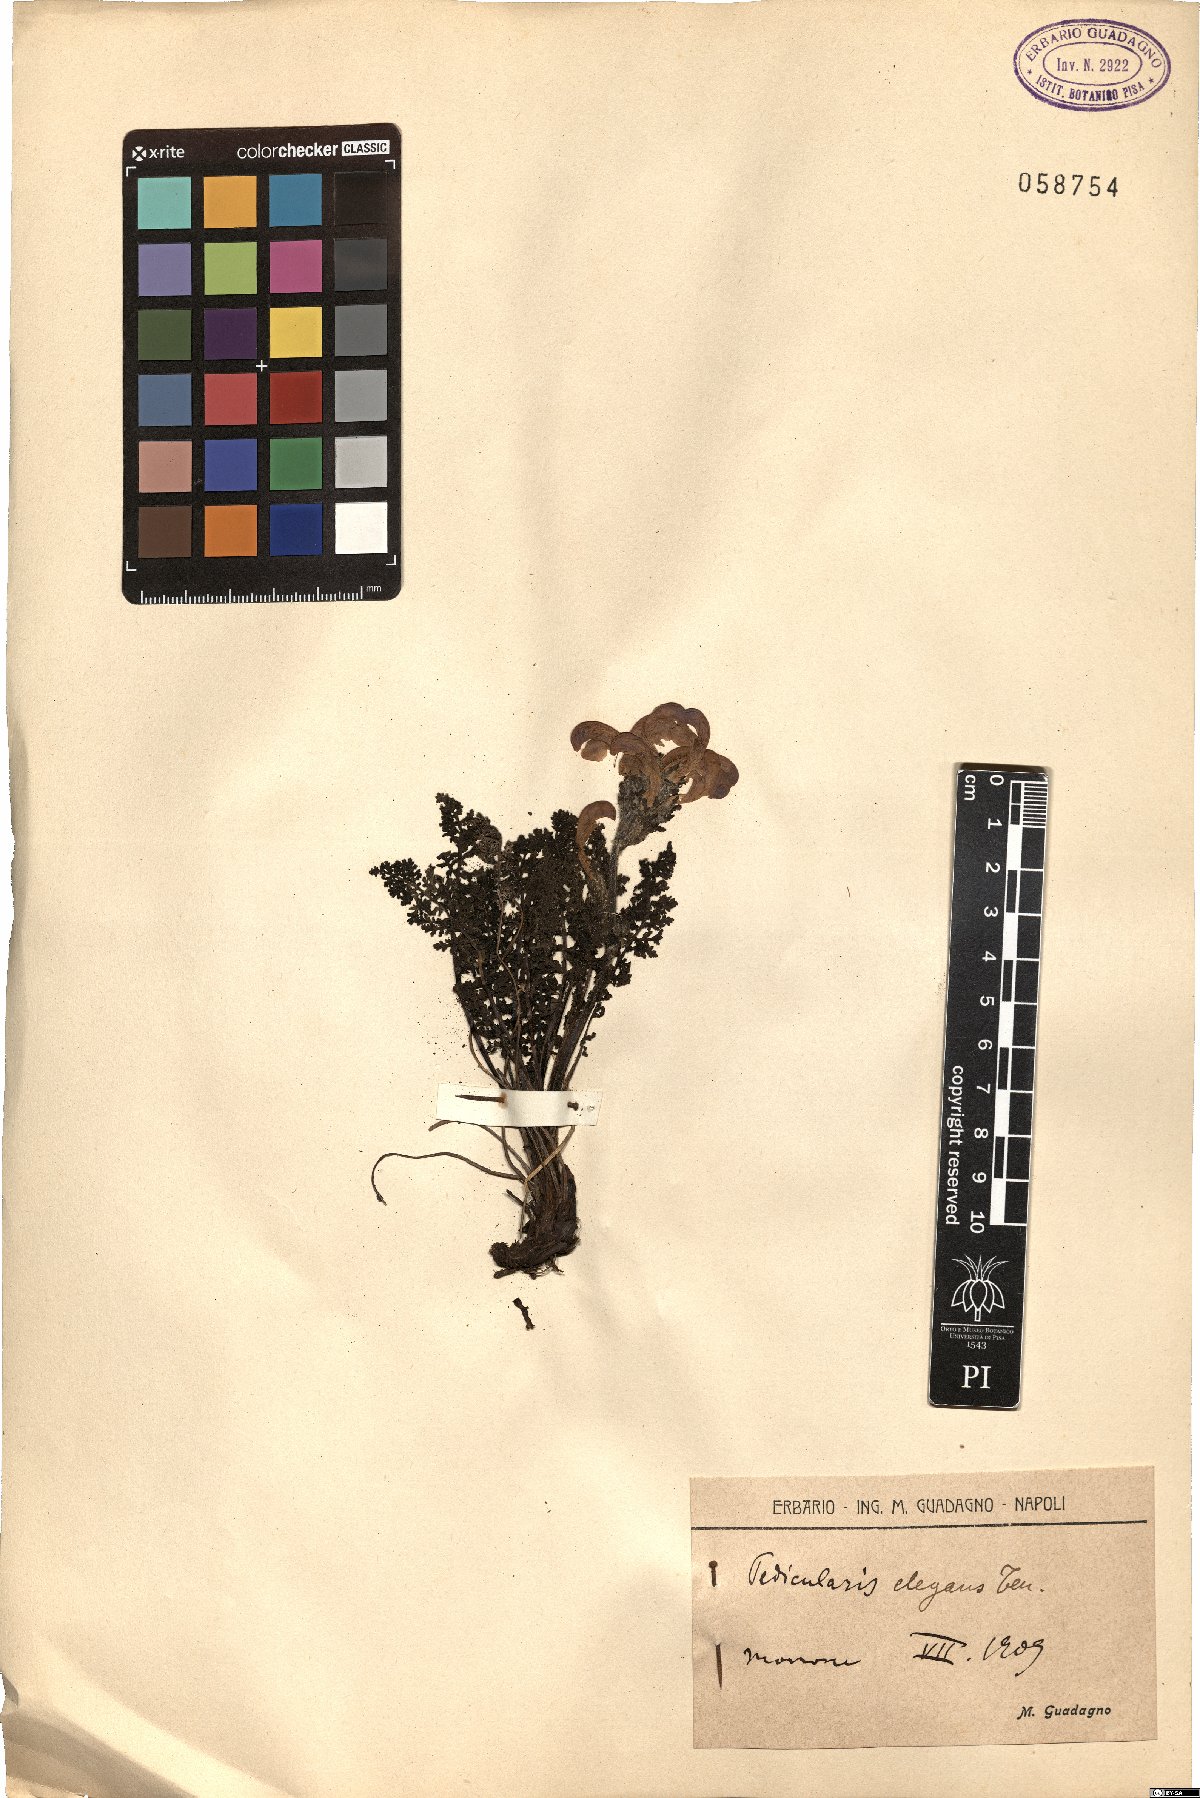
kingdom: Plantae
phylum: Tracheophyta
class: Magnoliopsida
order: Lamiales
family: Orobanchaceae
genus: Pedicularis
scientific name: Pedicularis elegans
